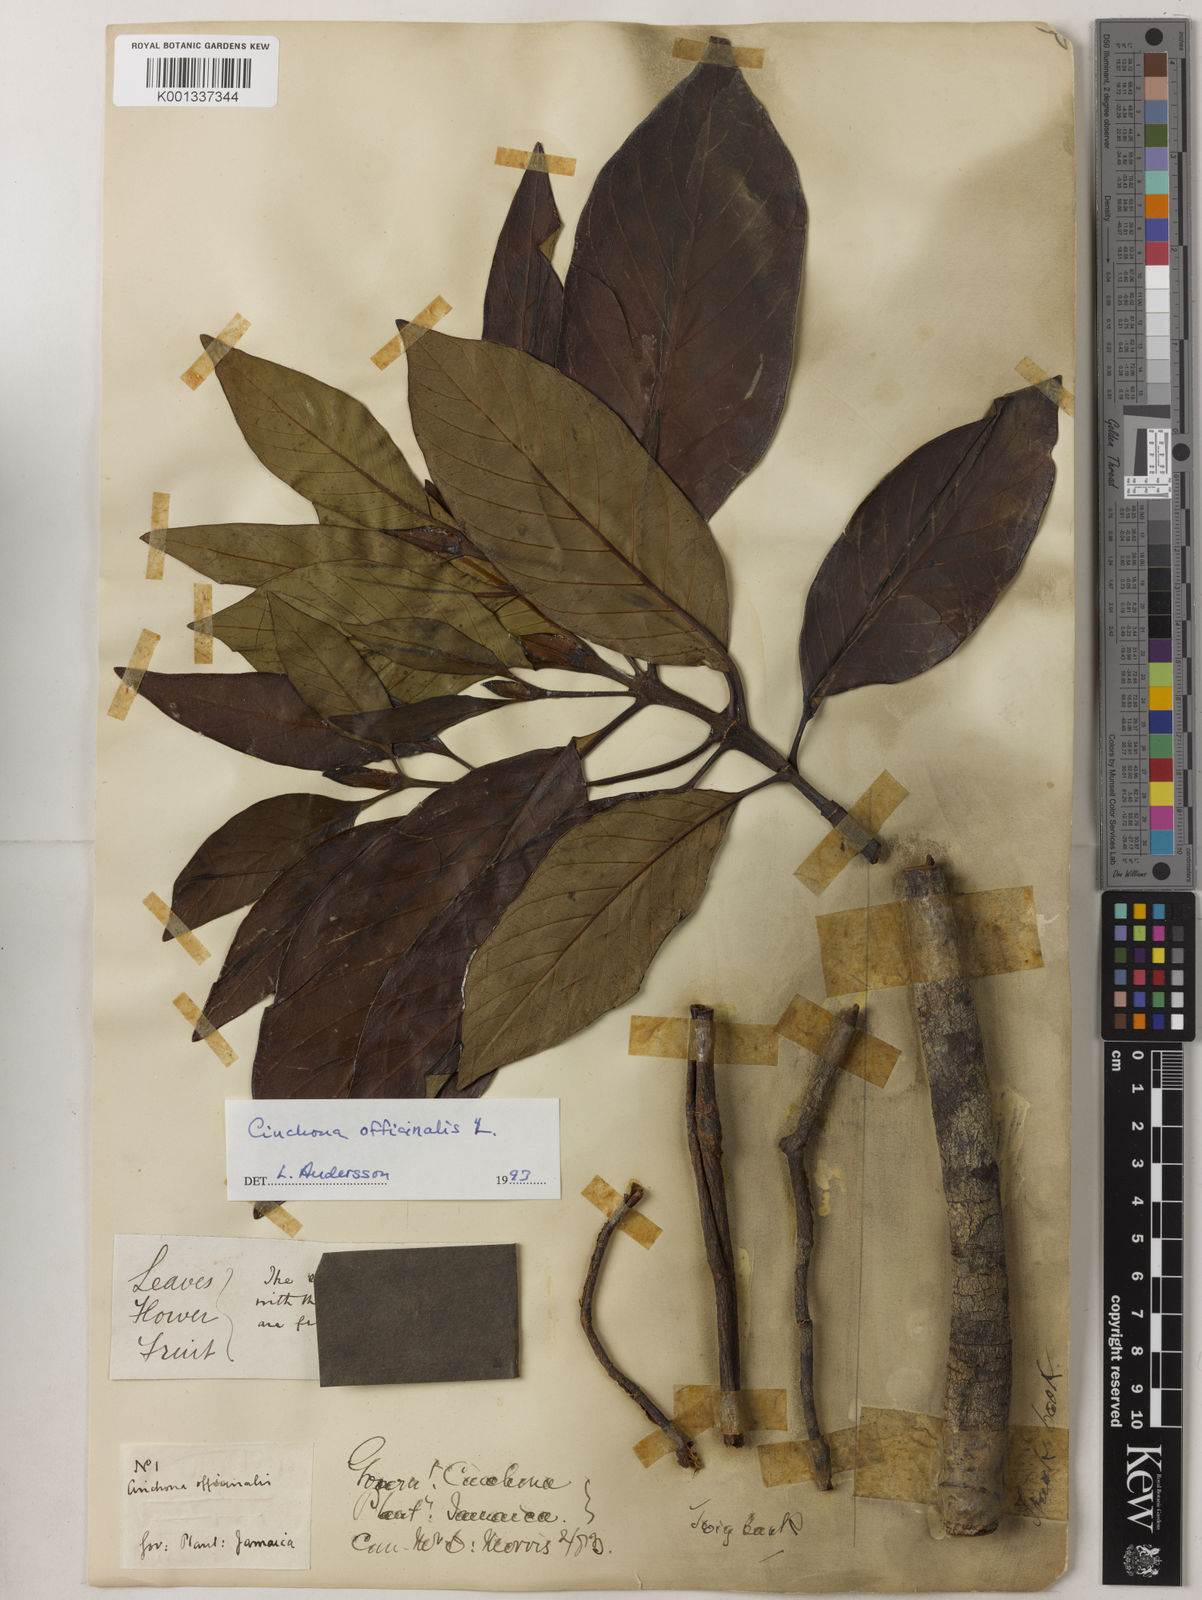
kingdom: Plantae
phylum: Tracheophyta
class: Magnoliopsida
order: Gentianales
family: Rubiaceae
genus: Cinchona
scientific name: Cinchona officinalis
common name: Lojabark
